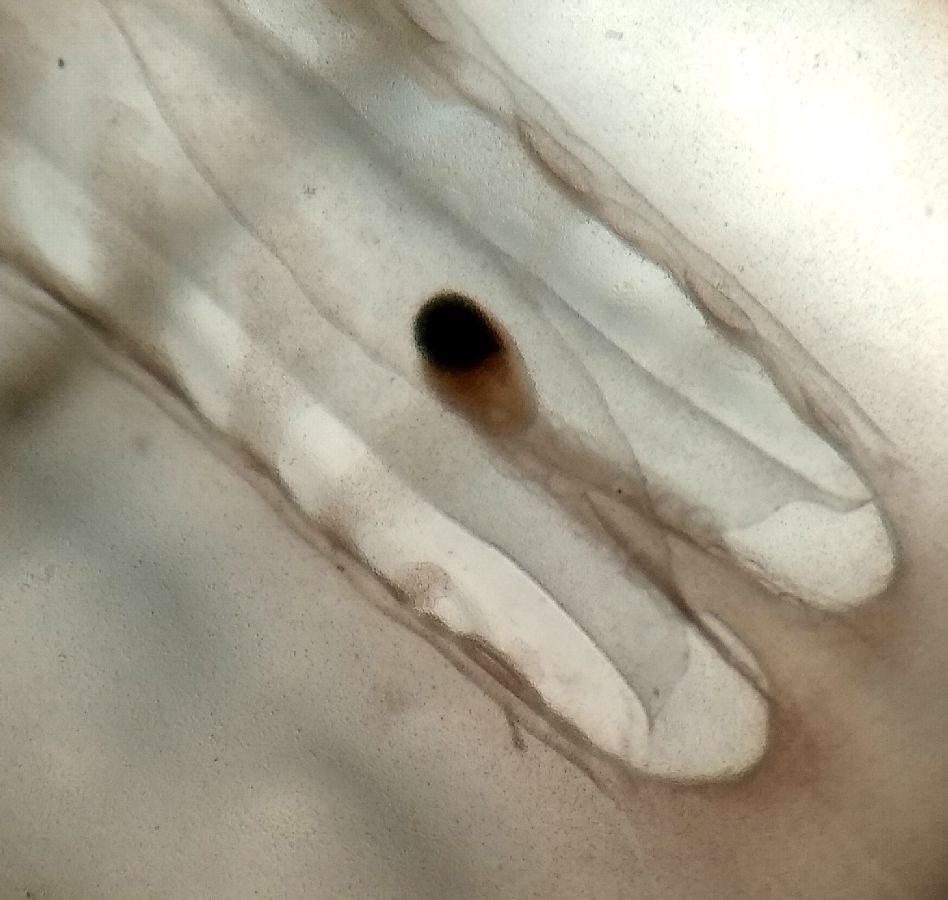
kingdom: Animalia
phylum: Cnidaria
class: Scyphozoa
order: Semaeostomeae
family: Cyaneidae
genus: Cyanea
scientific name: Cyanea capillata
